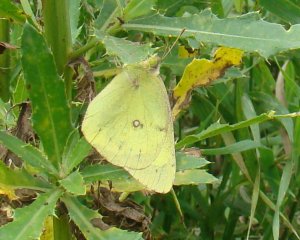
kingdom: Animalia
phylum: Arthropoda
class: Insecta
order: Lepidoptera
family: Pieridae
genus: Colias
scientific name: Colias philodice
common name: Clouded Sulphur
